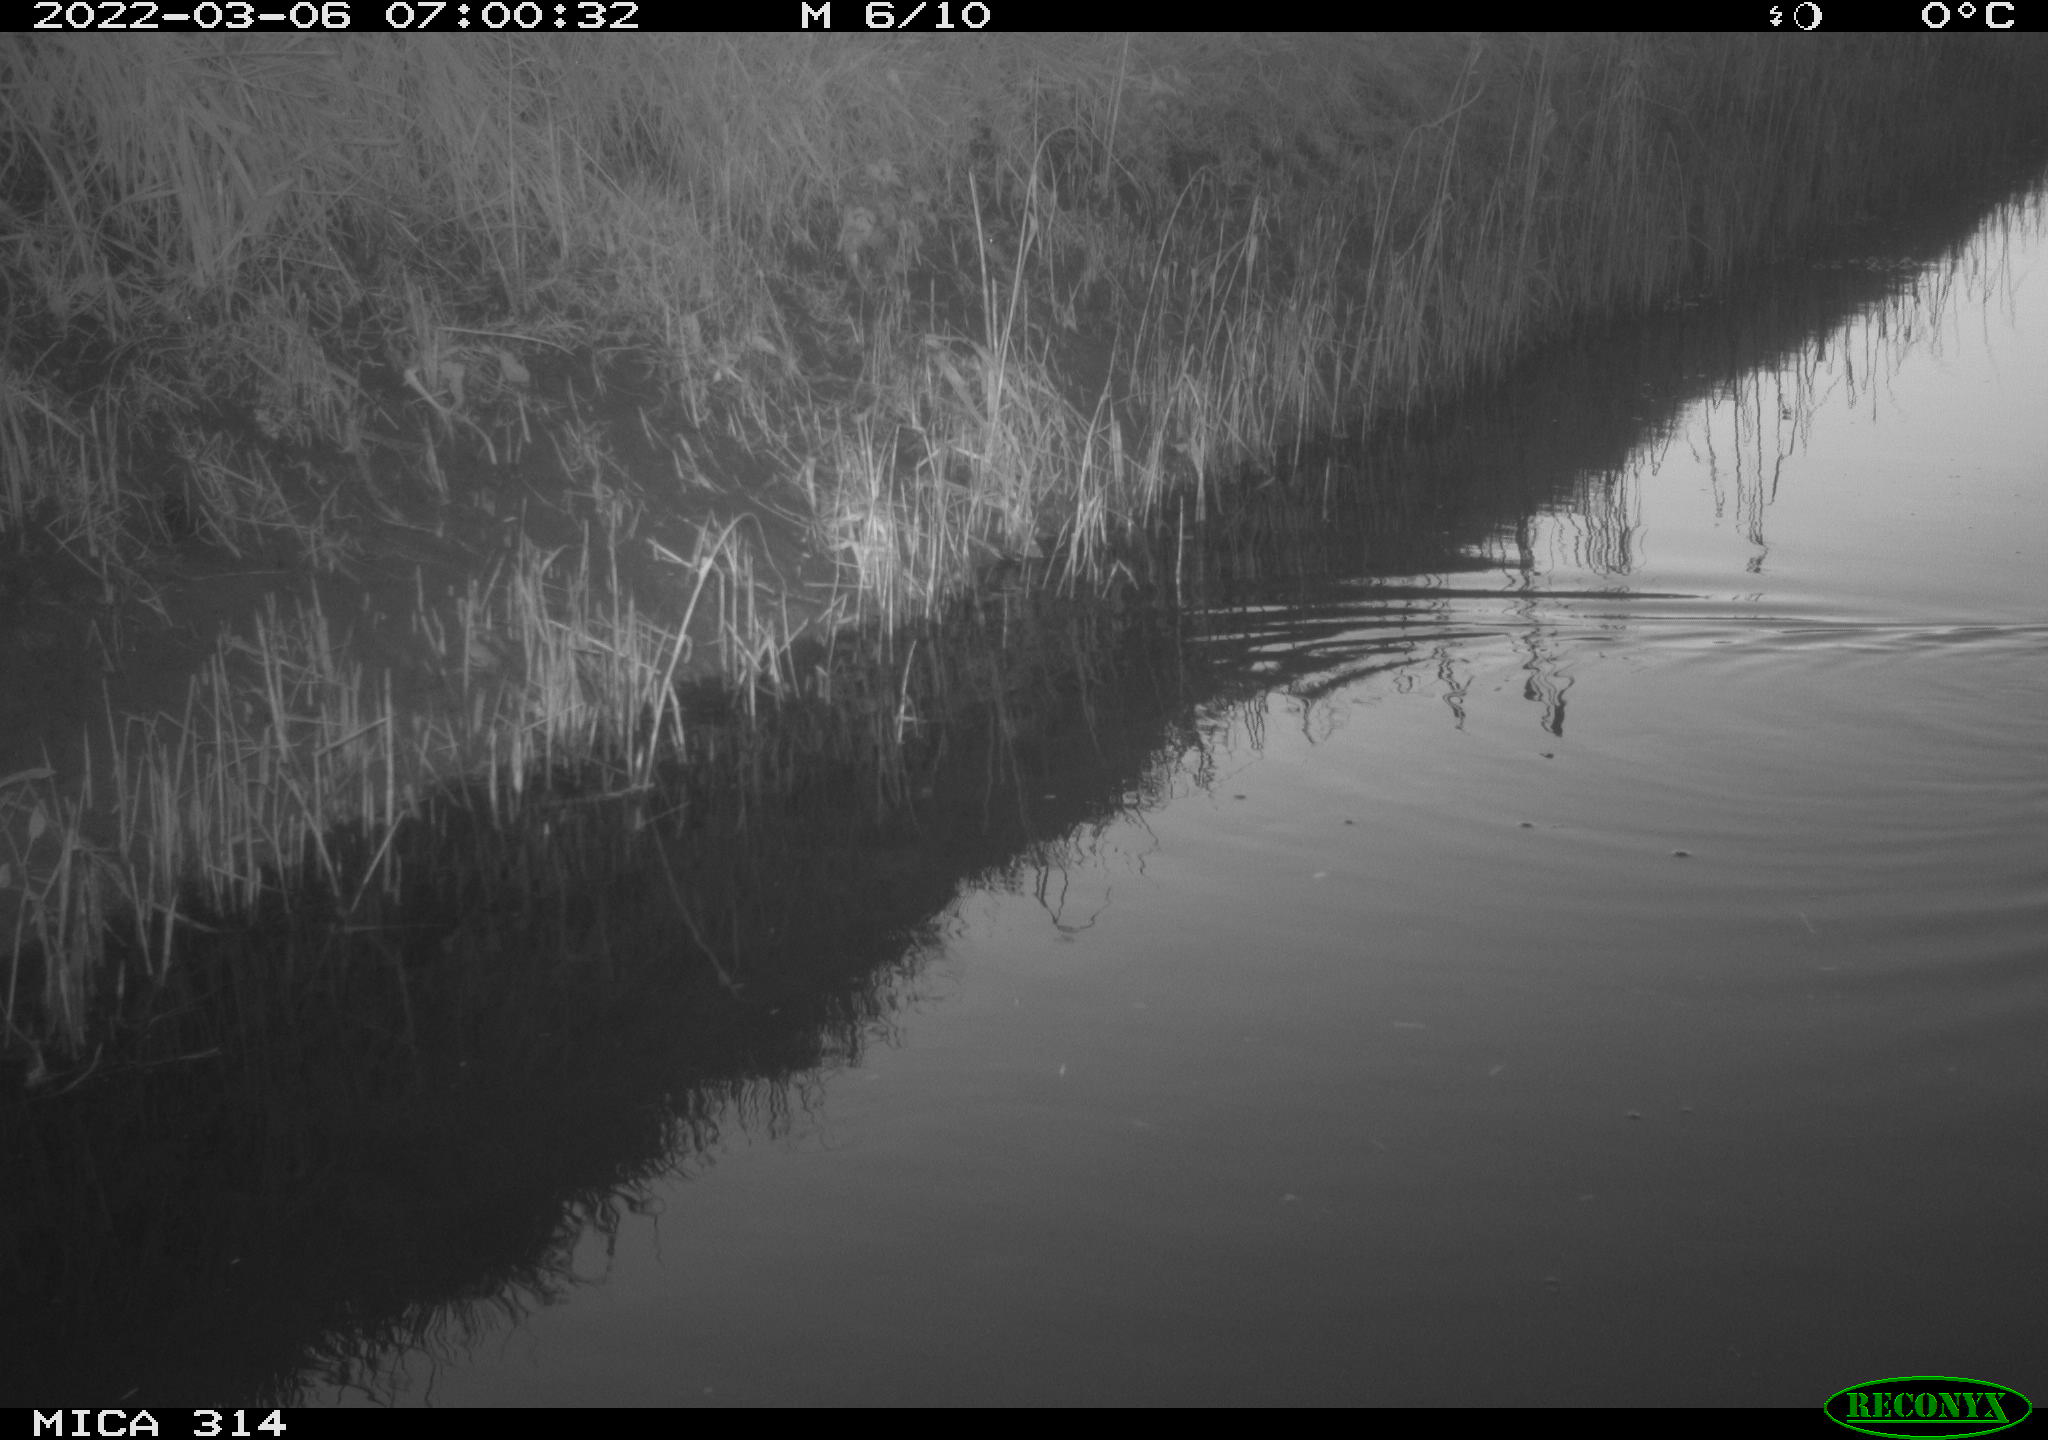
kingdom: Animalia
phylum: Chordata
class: Aves
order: Gruiformes
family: Rallidae
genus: Gallinula
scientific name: Gallinula chloropus
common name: Common moorhen
